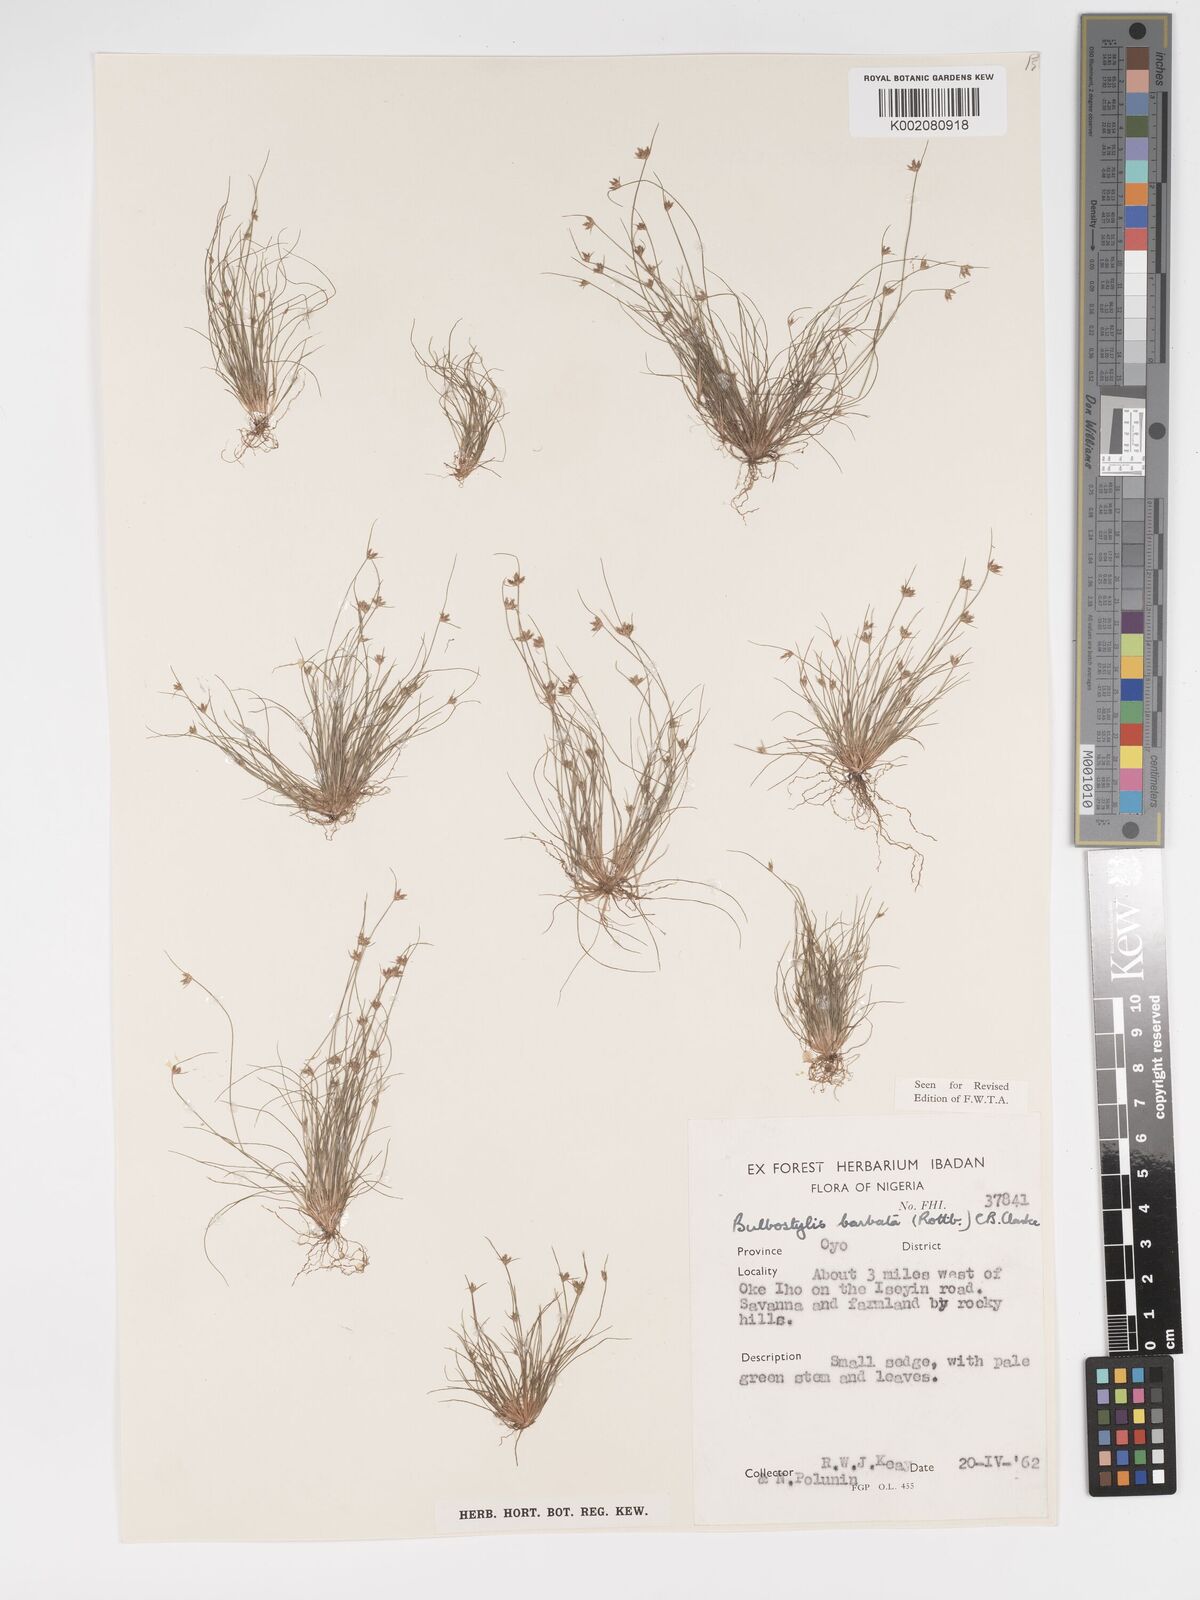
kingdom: Plantae
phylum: Tracheophyta
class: Liliopsida
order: Poales
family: Cyperaceae
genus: Bulbostylis
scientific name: Bulbostylis barbata
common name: Watergrass
